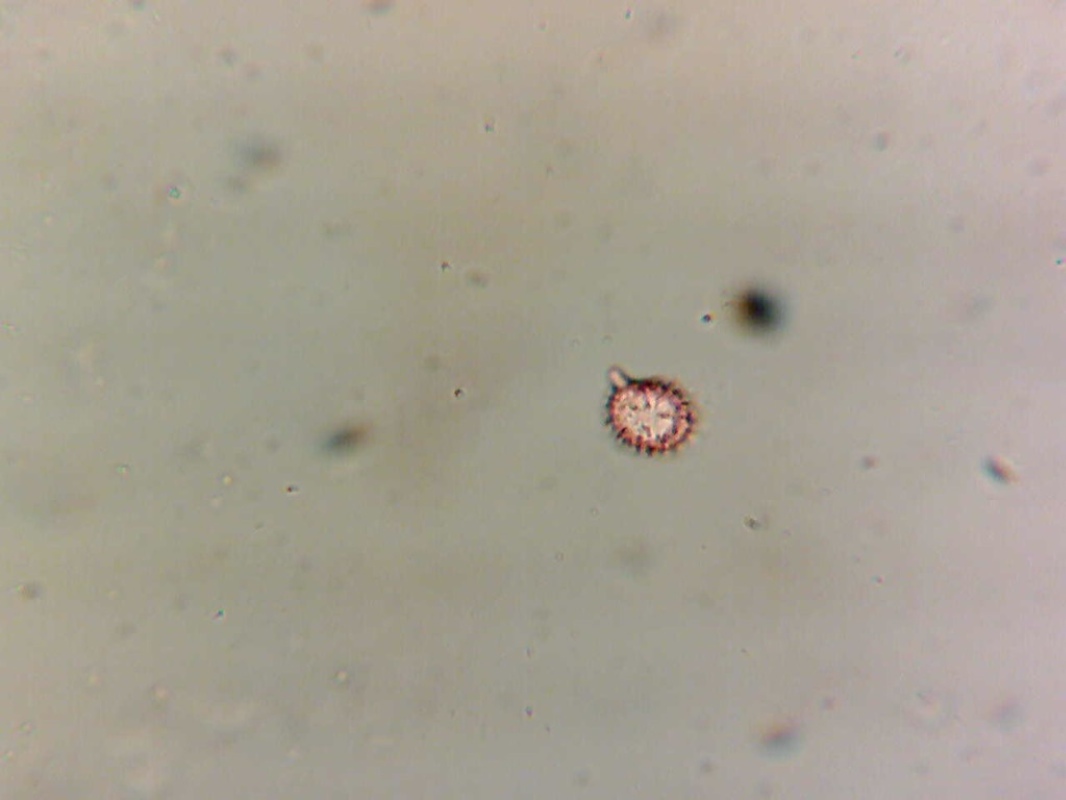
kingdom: Fungi
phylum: Basidiomycota
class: Agaricomycetes
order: Russulales
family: Russulaceae
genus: Russula
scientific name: Russula nitida
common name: året skørhat
